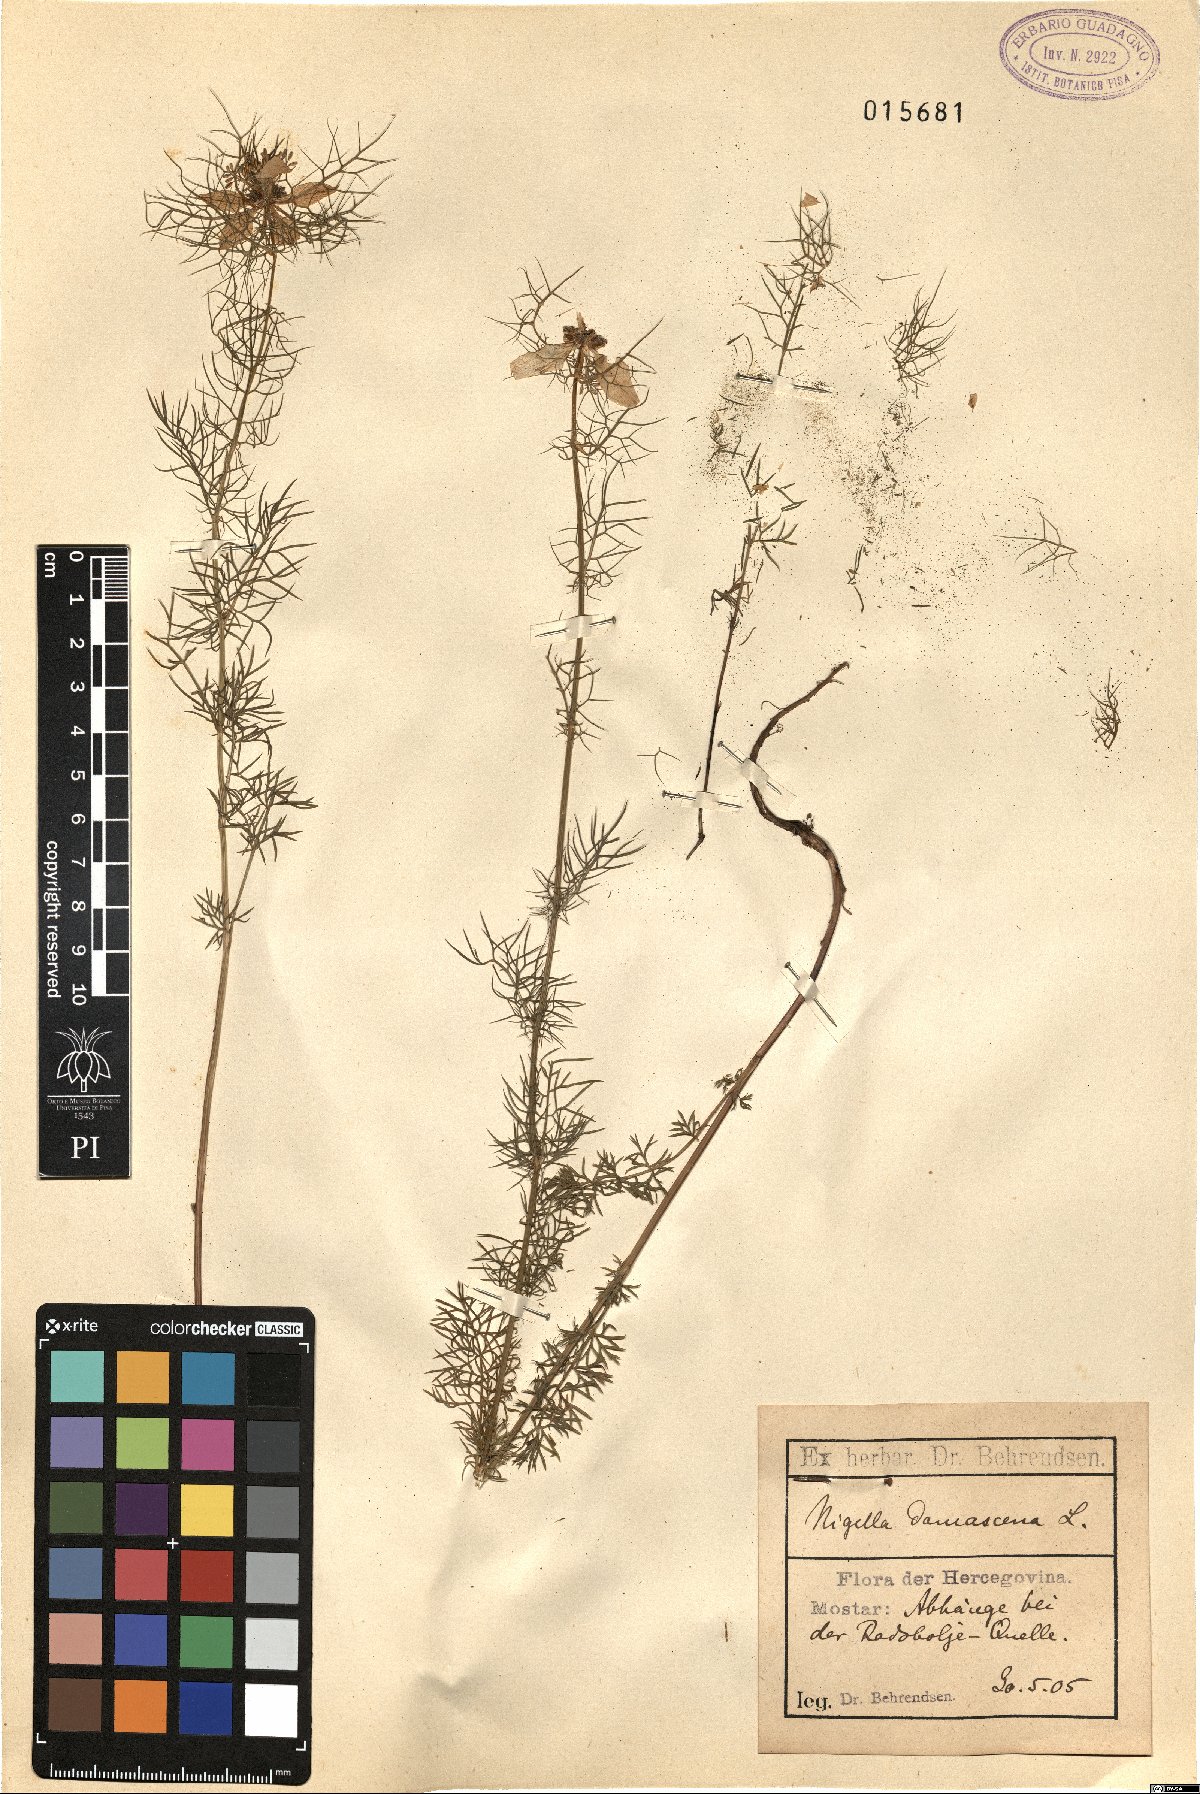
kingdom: Plantae
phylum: Tracheophyta
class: Magnoliopsida
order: Ranunculales
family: Ranunculaceae
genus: Nigella
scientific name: Nigella damascena
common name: Love-in-a-mist
